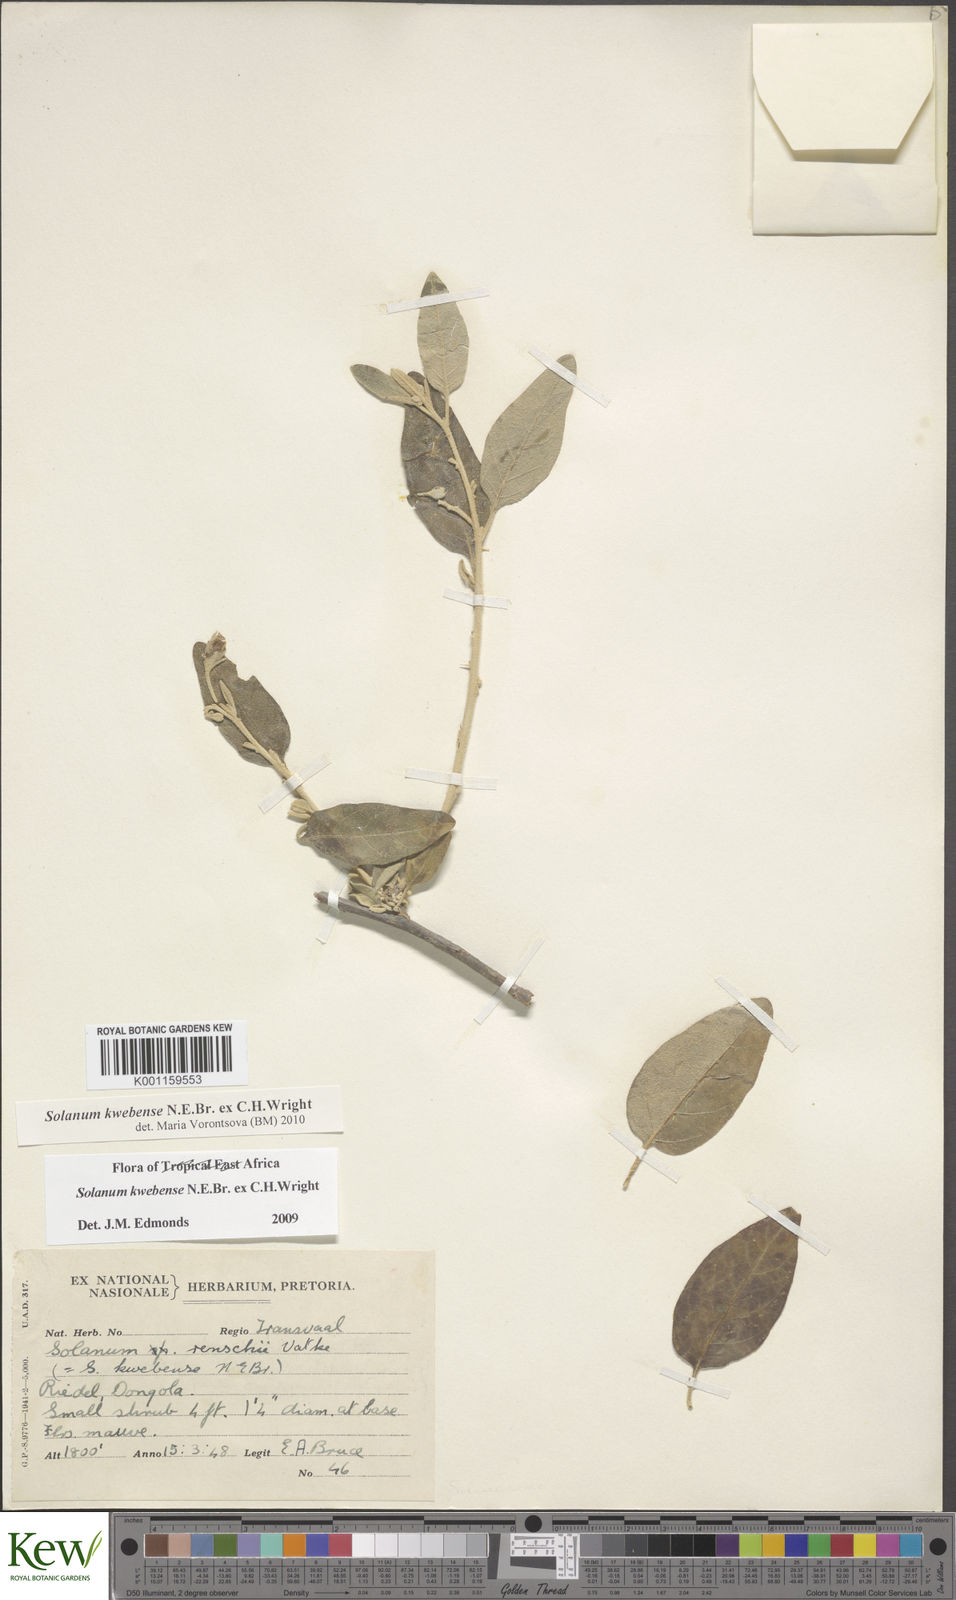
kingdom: Plantae
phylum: Tracheophyta
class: Magnoliopsida
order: Solanales
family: Solanaceae
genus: Solanum
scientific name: Solanum tettense
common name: Mozambique bitter apple
